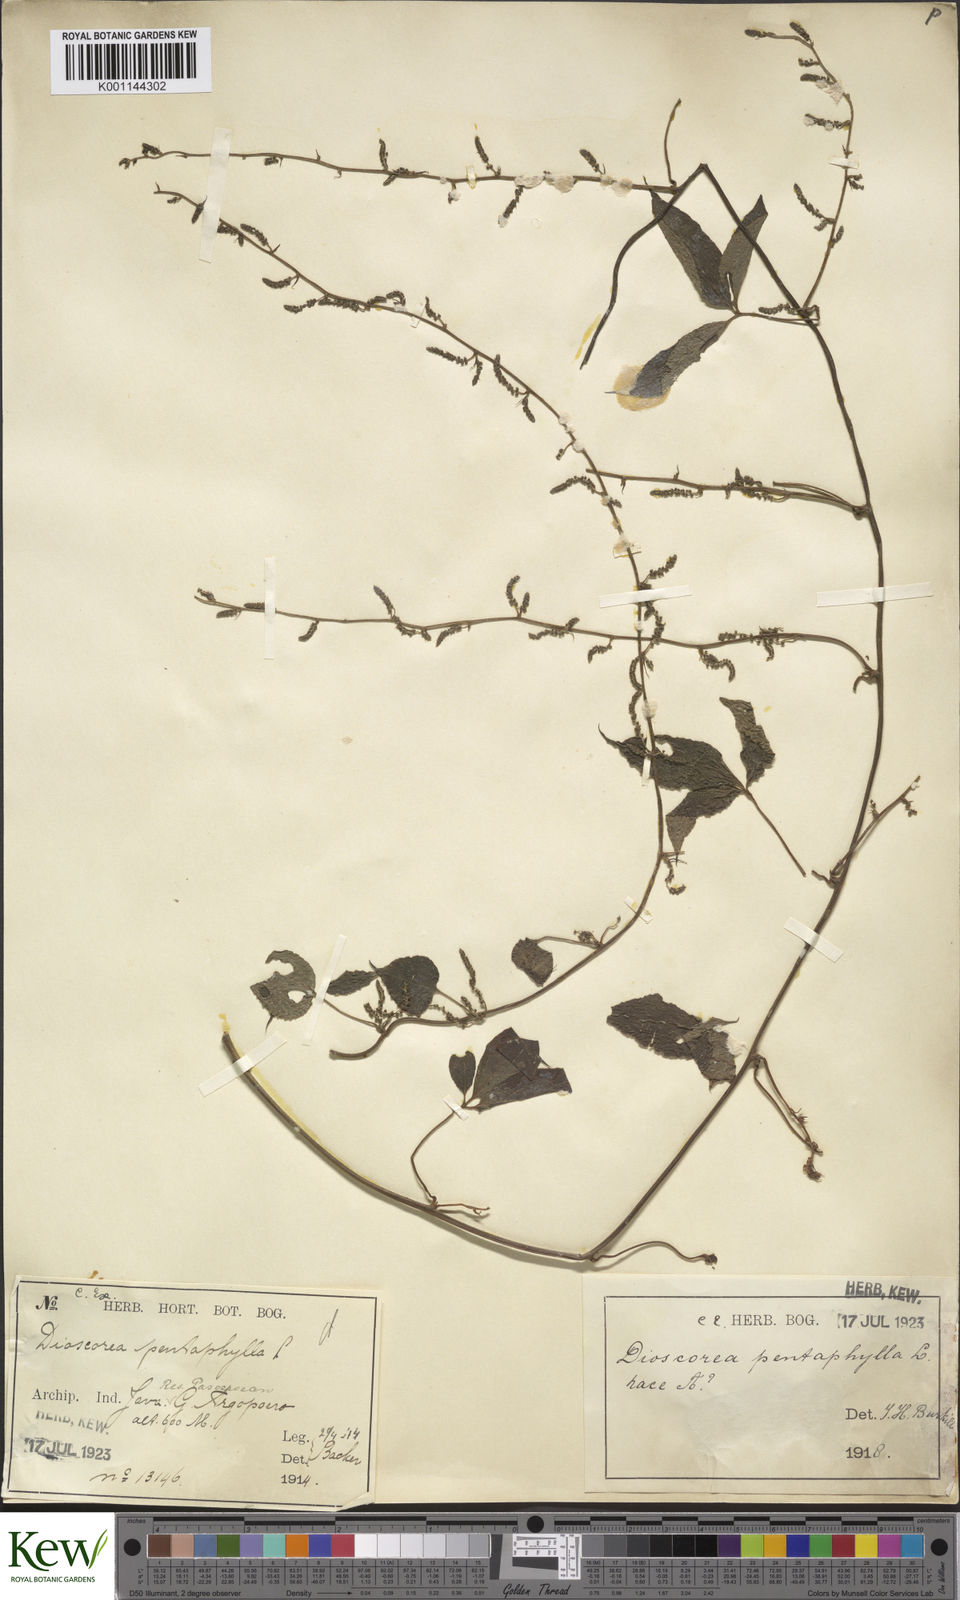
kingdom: Plantae
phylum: Tracheophyta
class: Liliopsida
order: Dioscoreales
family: Dioscoreaceae
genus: Dioscorea
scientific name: Dioscorea pentaphylla
